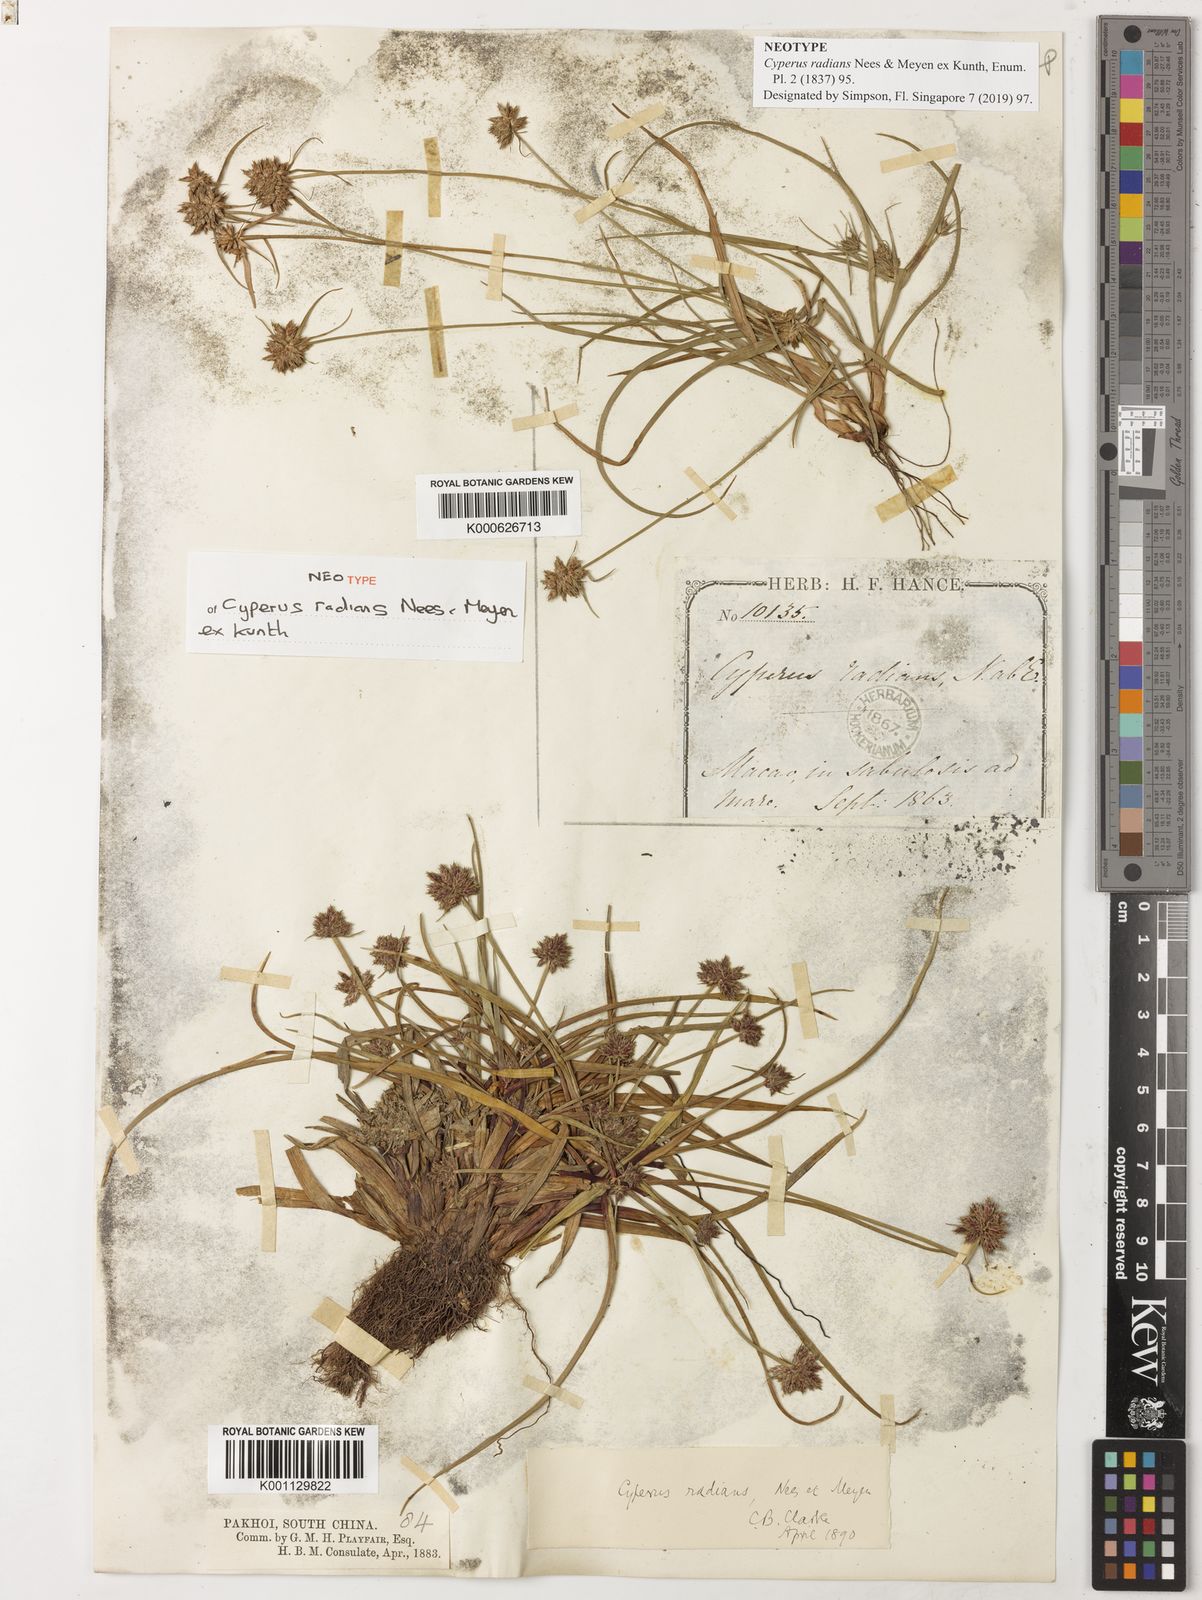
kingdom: Plantae
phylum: Tracheophyta
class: Liliopsida
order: Poales
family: Cyperaceae
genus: Cyperus
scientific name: Cyperus radians
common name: Short-stem cyperus
